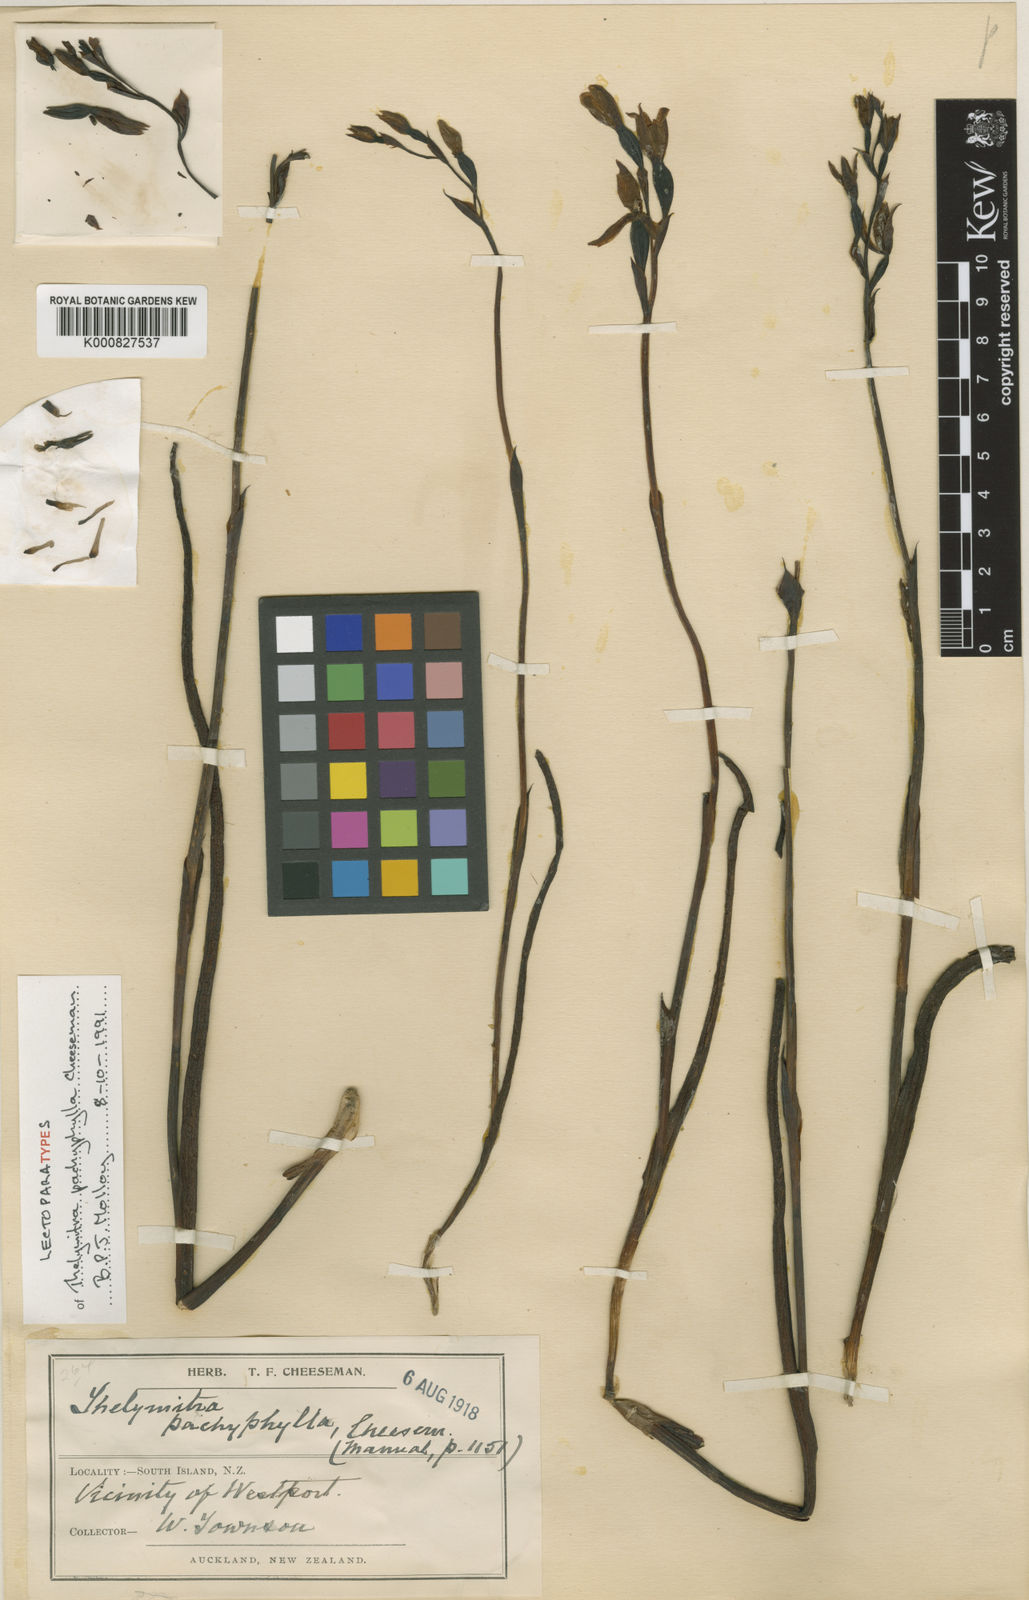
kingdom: Plantae
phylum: Tracheophyta
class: Liliopsida
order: Asparagales
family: Orchidaceae
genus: Thelymitra
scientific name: Thelymitra pulchella
